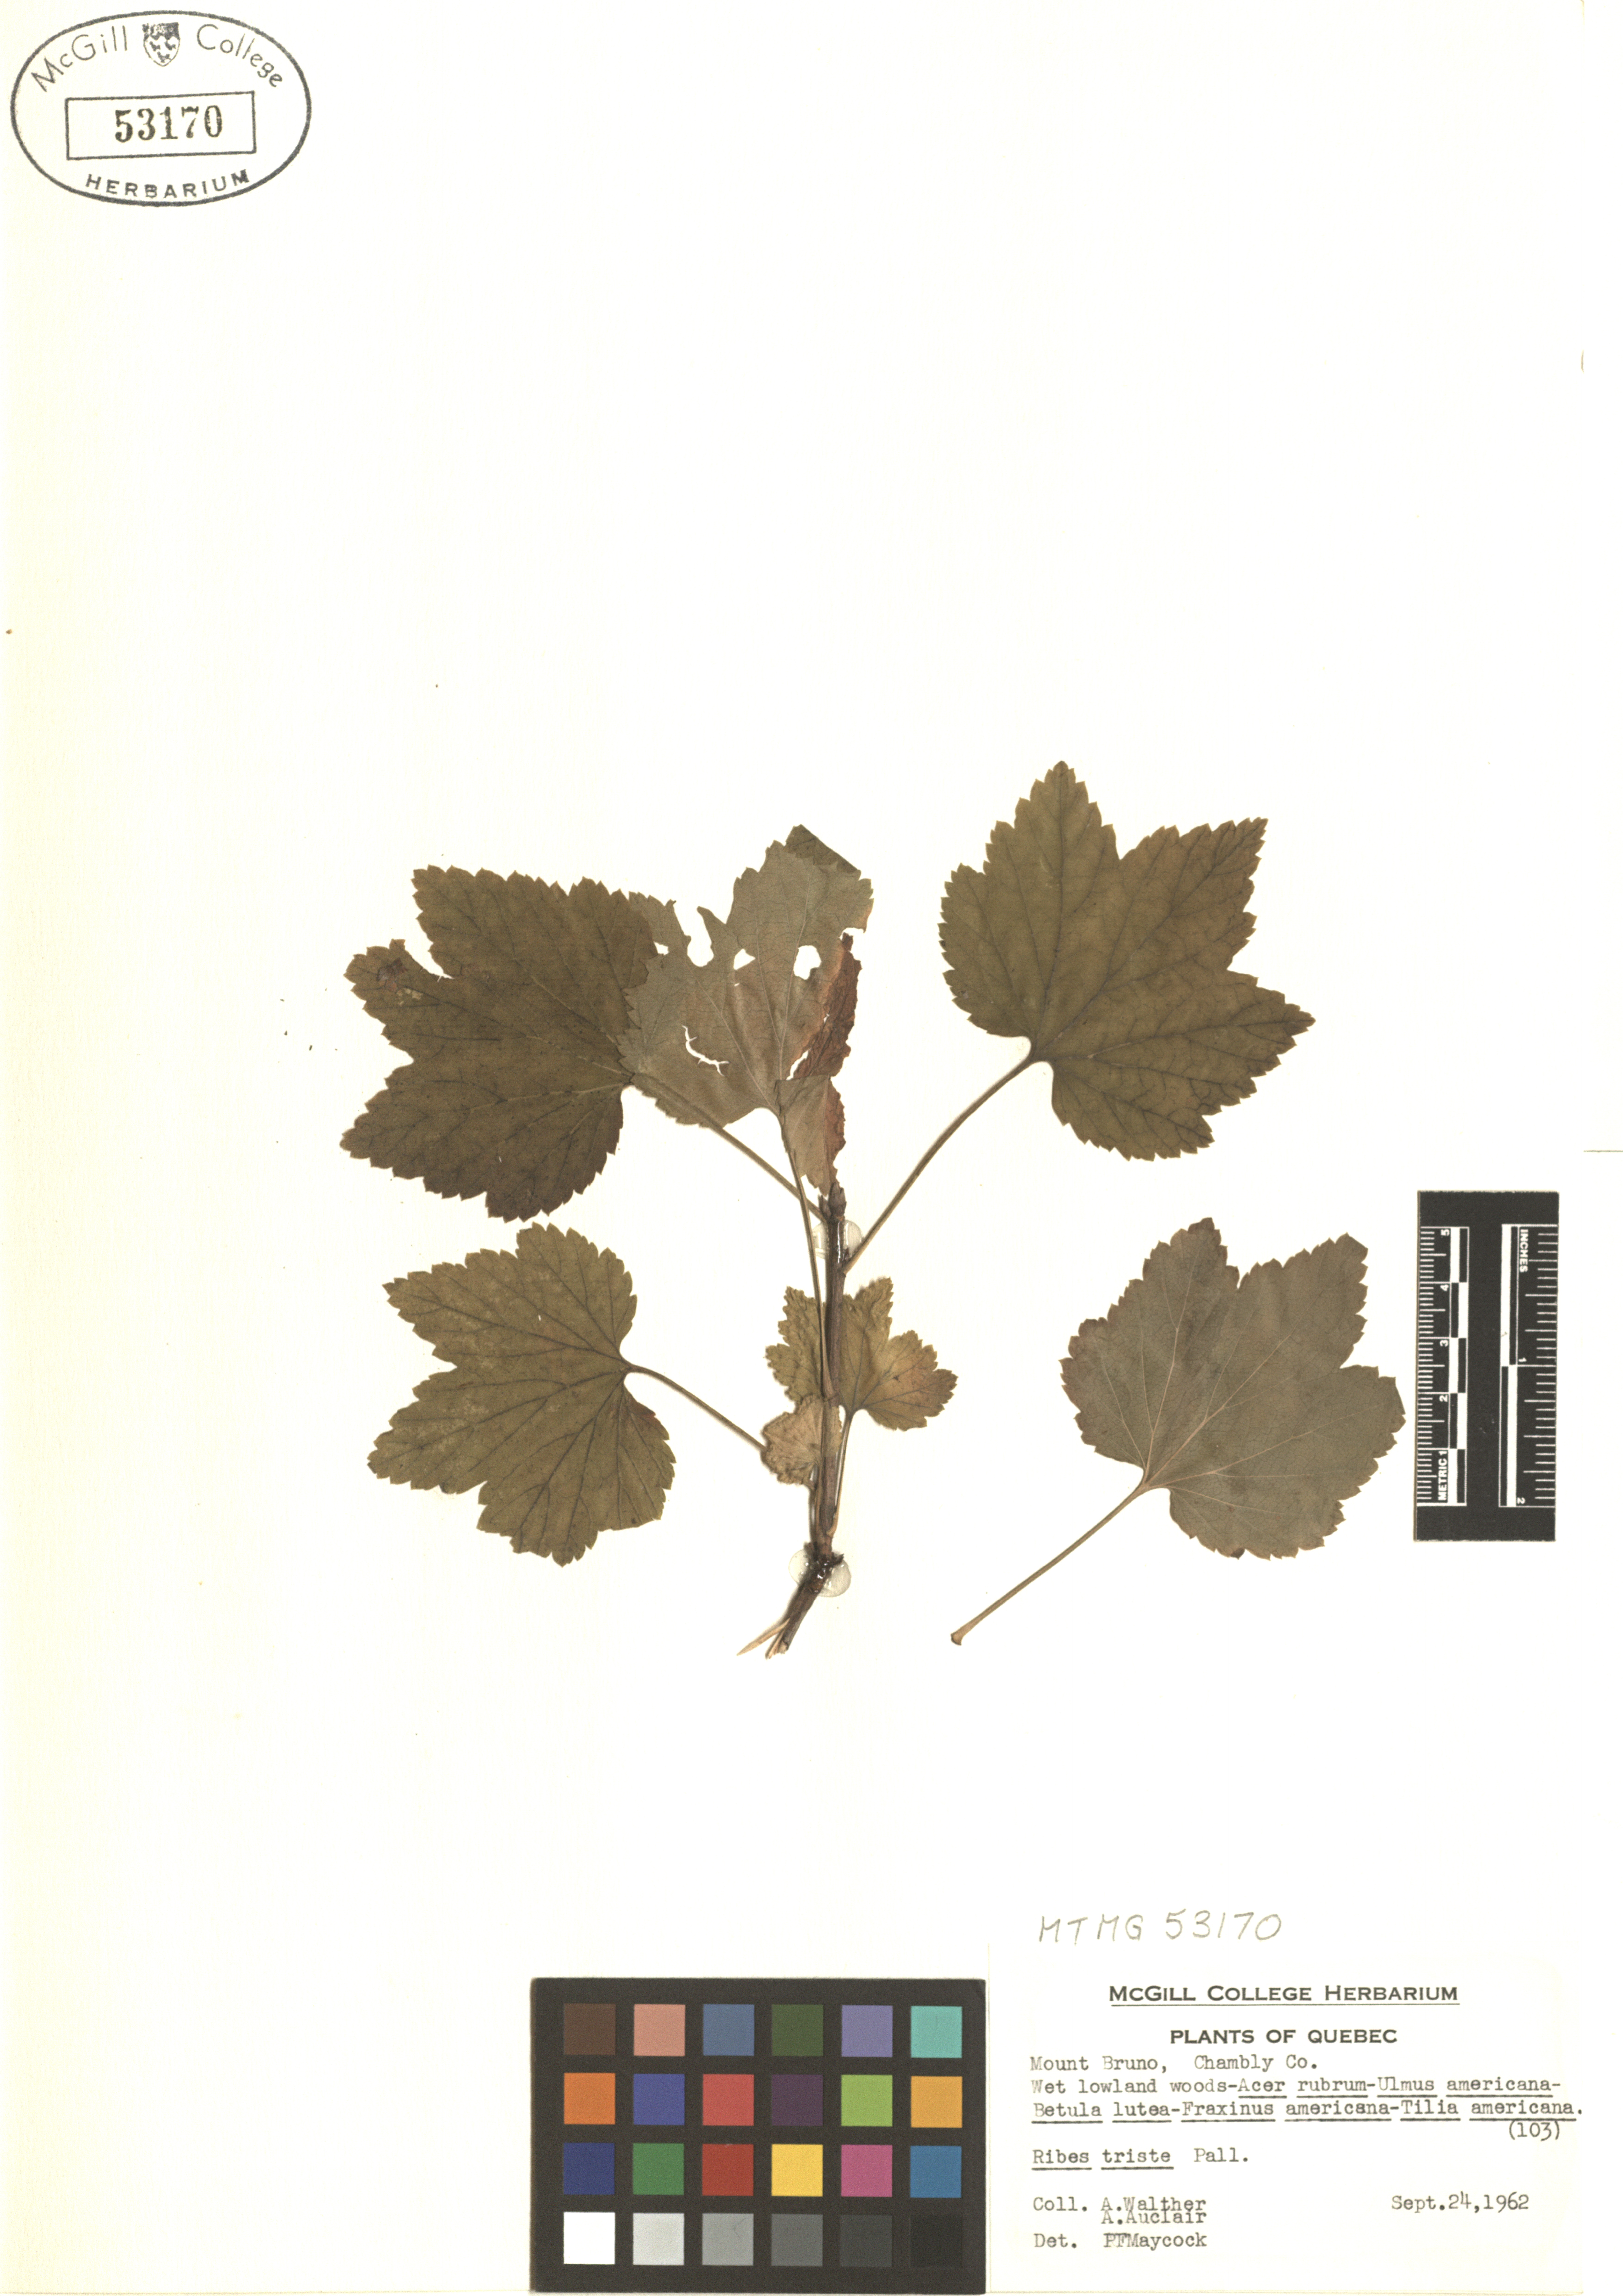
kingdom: Plantae
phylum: Tracheophyta
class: Magnoliopsida
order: Saxifragales
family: Grossulariaceae
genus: Ribes
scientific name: Ribes triste
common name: Swamp red currant
